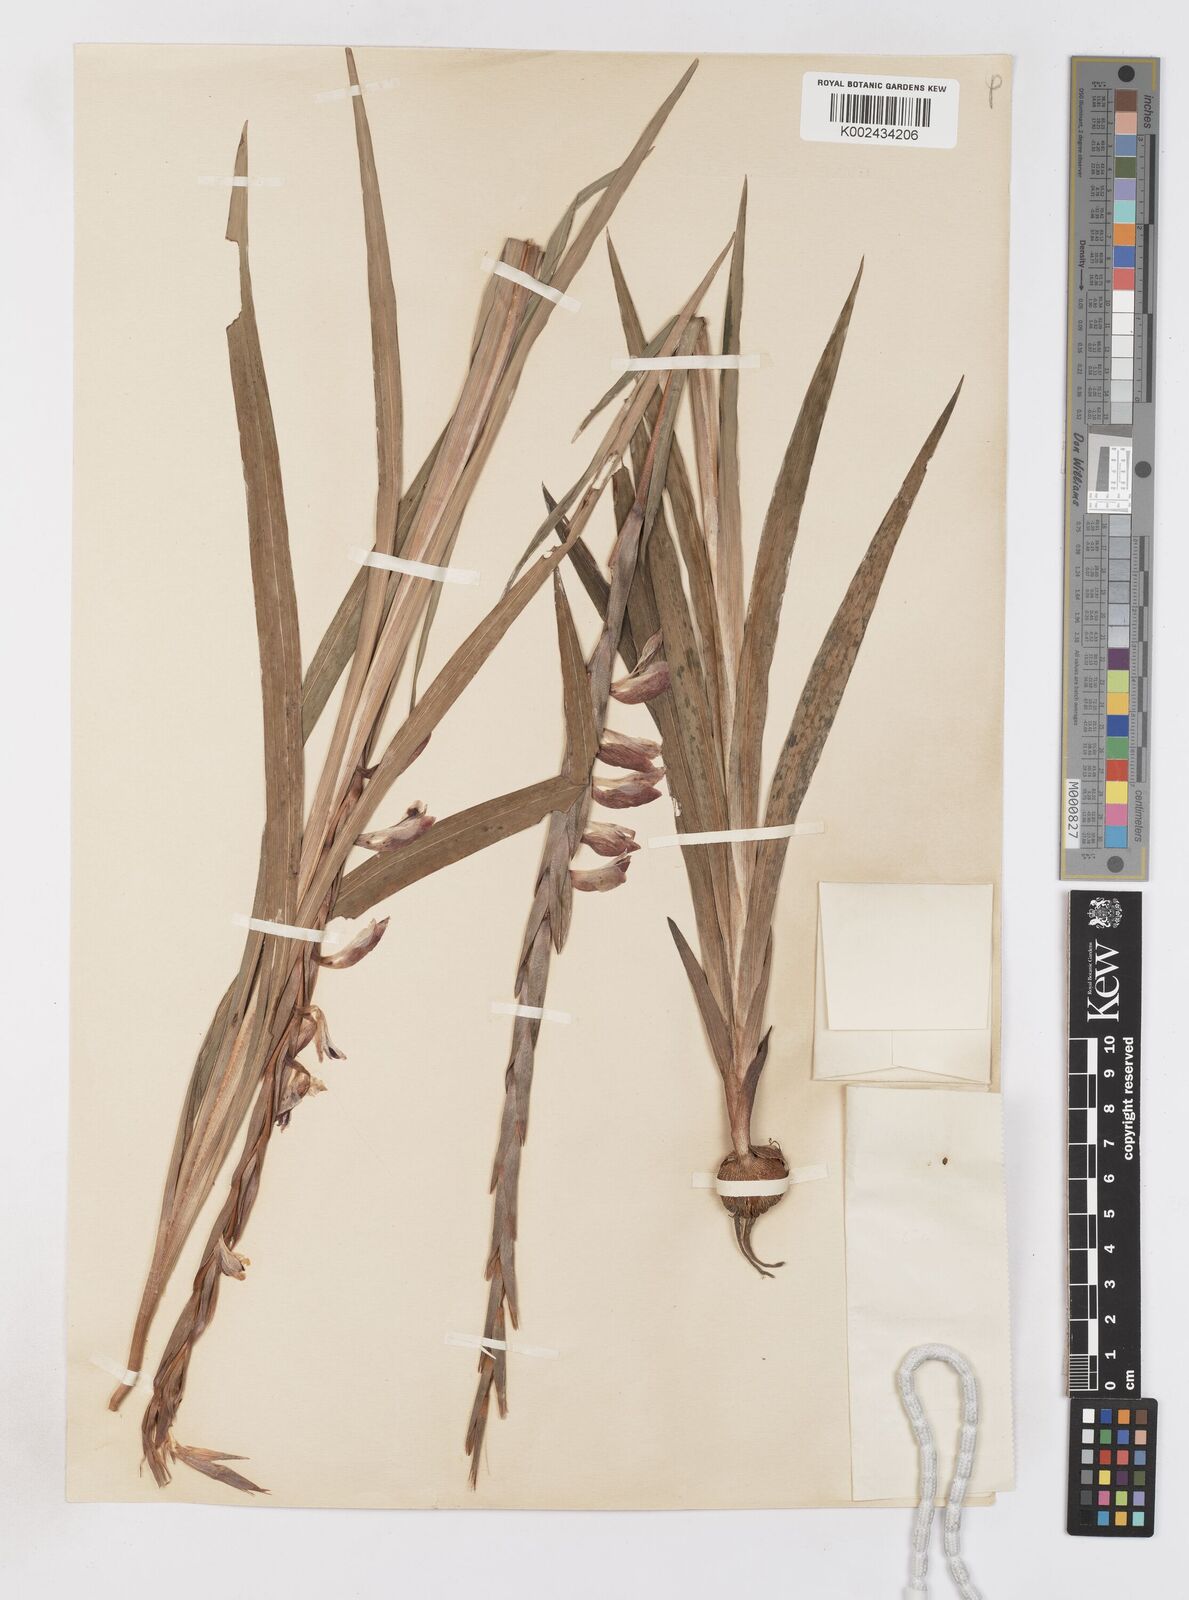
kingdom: Plantae
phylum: Tracheophyta
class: Liliopsida
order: Asparagales
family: Iridaceae
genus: Gladiolus
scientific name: Gladiolus gregarius
